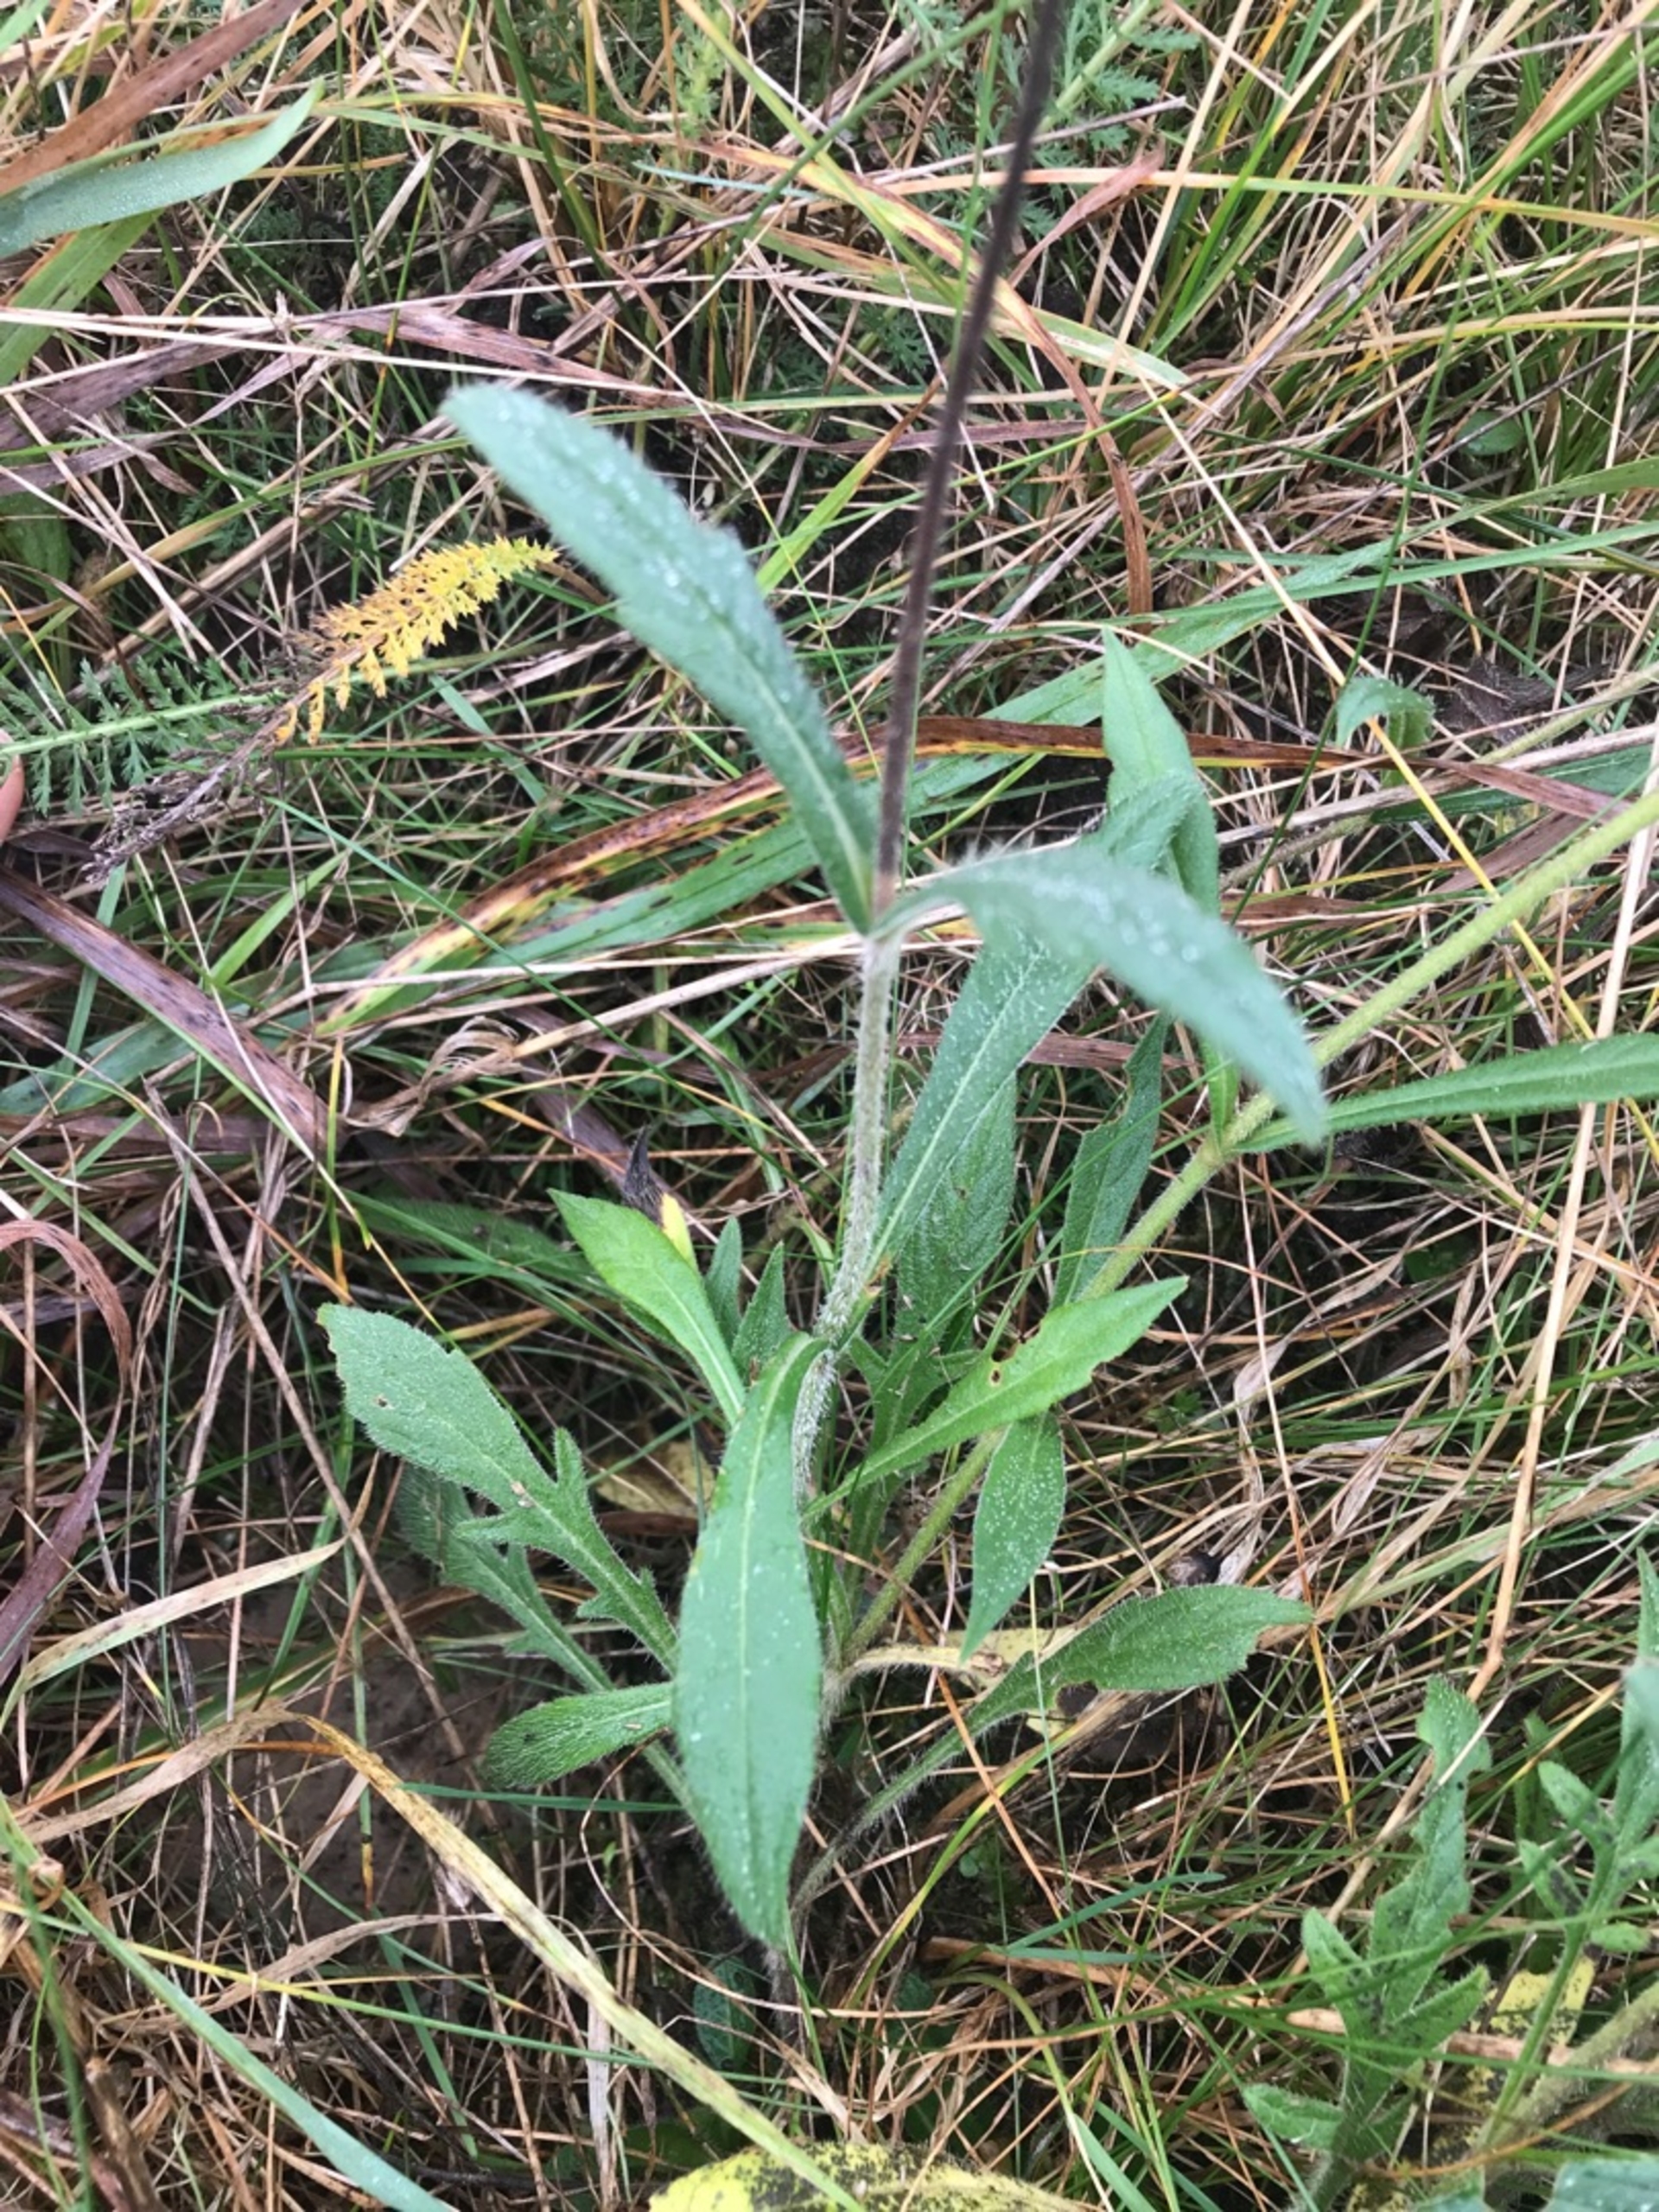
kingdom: Plantae
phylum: Tracheophyta
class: Magnoliopsida
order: Dipsacales
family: Caprifoliaceae
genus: Knautia
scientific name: Knautia arvensis
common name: Blåhat
